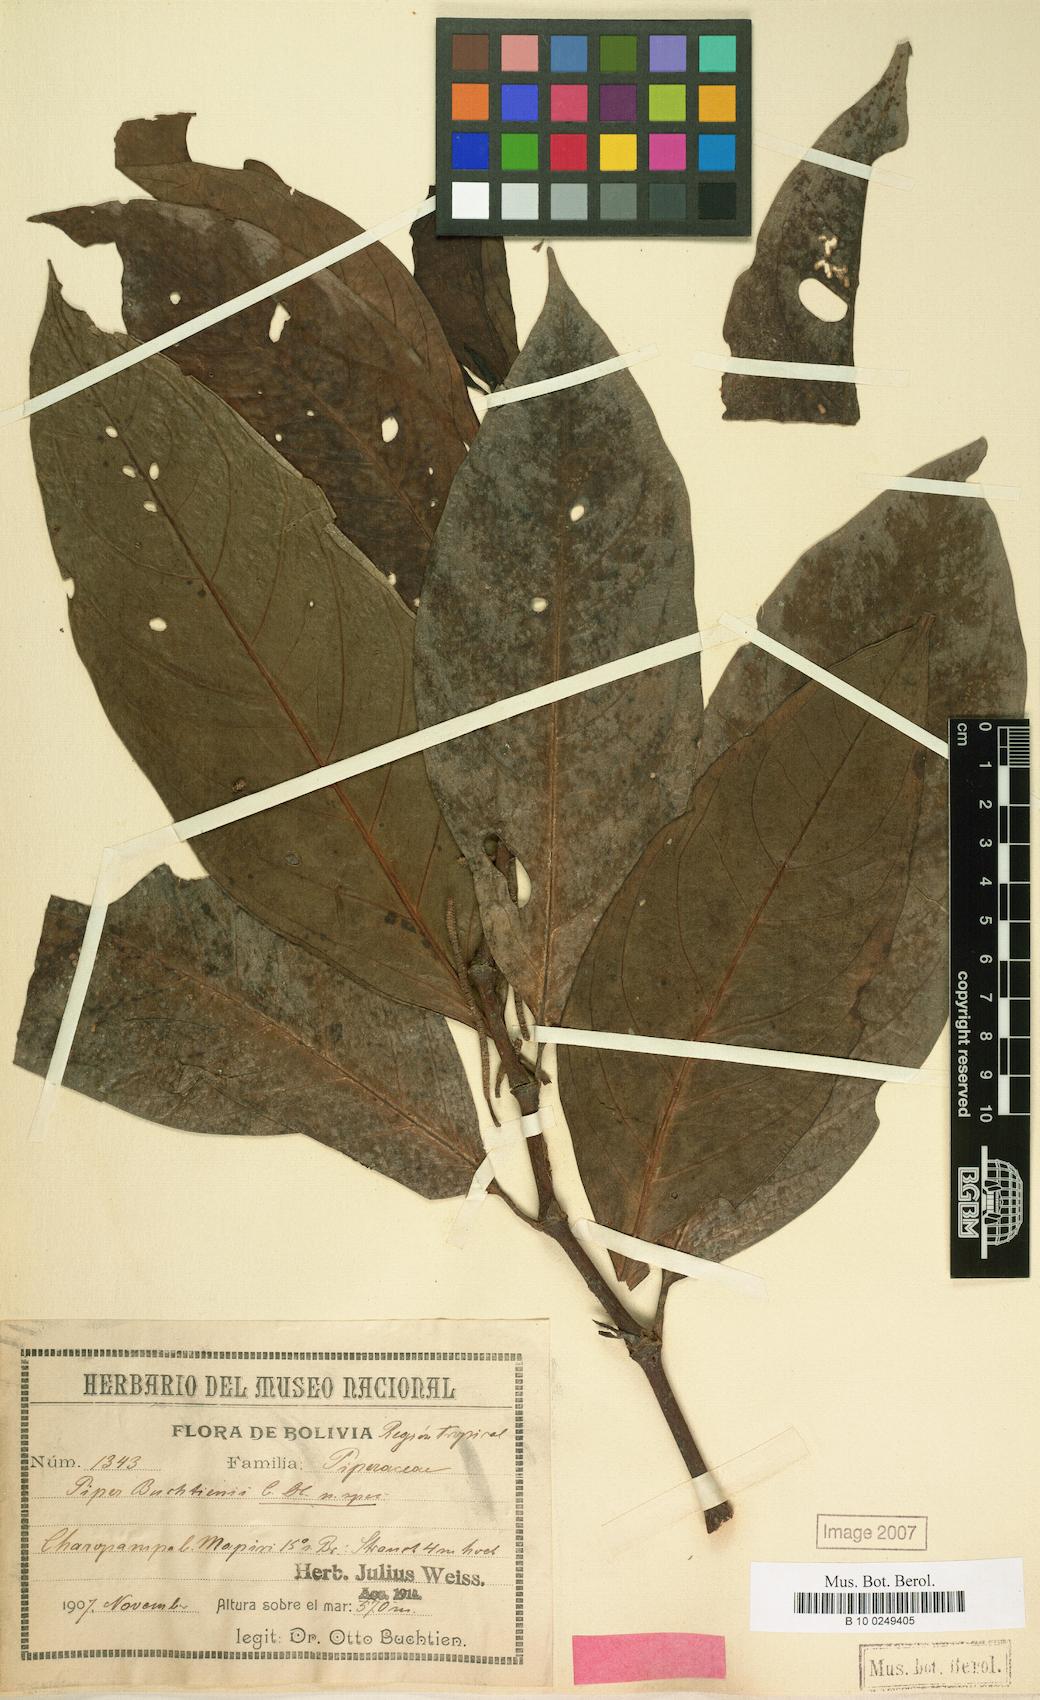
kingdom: Plantae
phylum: Tracheophyta
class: Magnoliopsida
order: Piperales
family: Piperaceae
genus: Piper
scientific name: Piper heterophyllum
